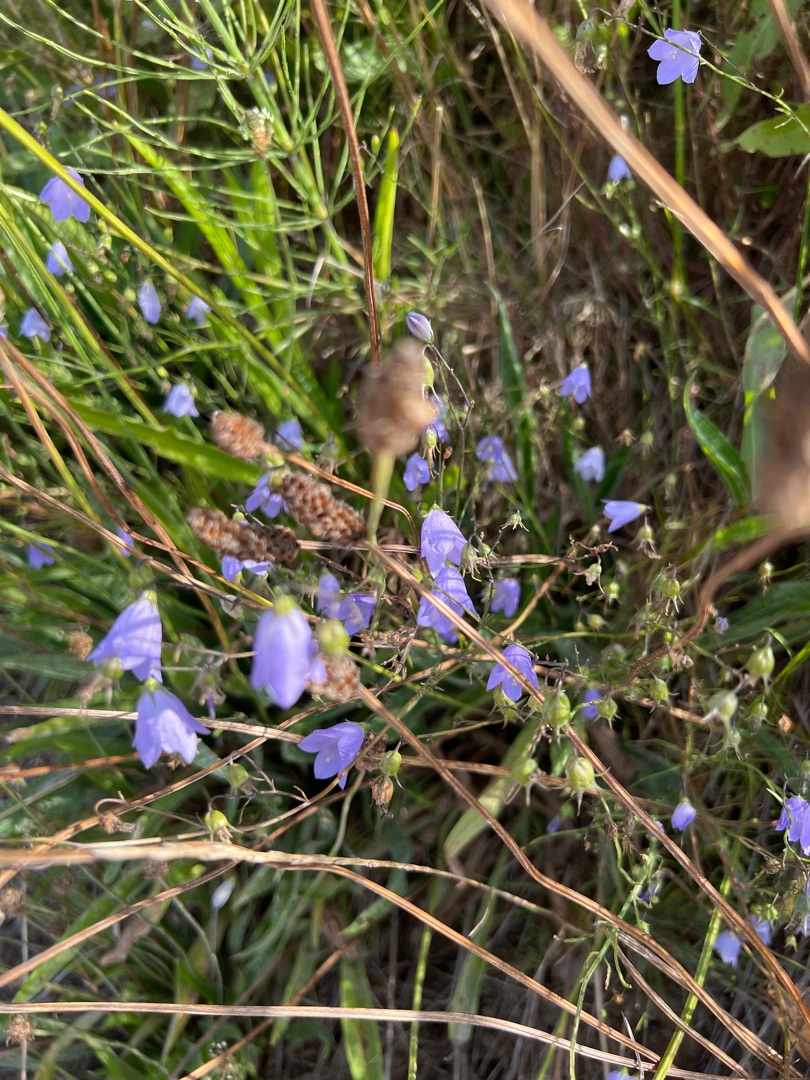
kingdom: Plantae
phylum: Tracheophyta
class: Magnoliopsida
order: Asterales
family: Campanulaceae
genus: Campanula
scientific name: Campanula rotundifolia
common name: Liden klokke
